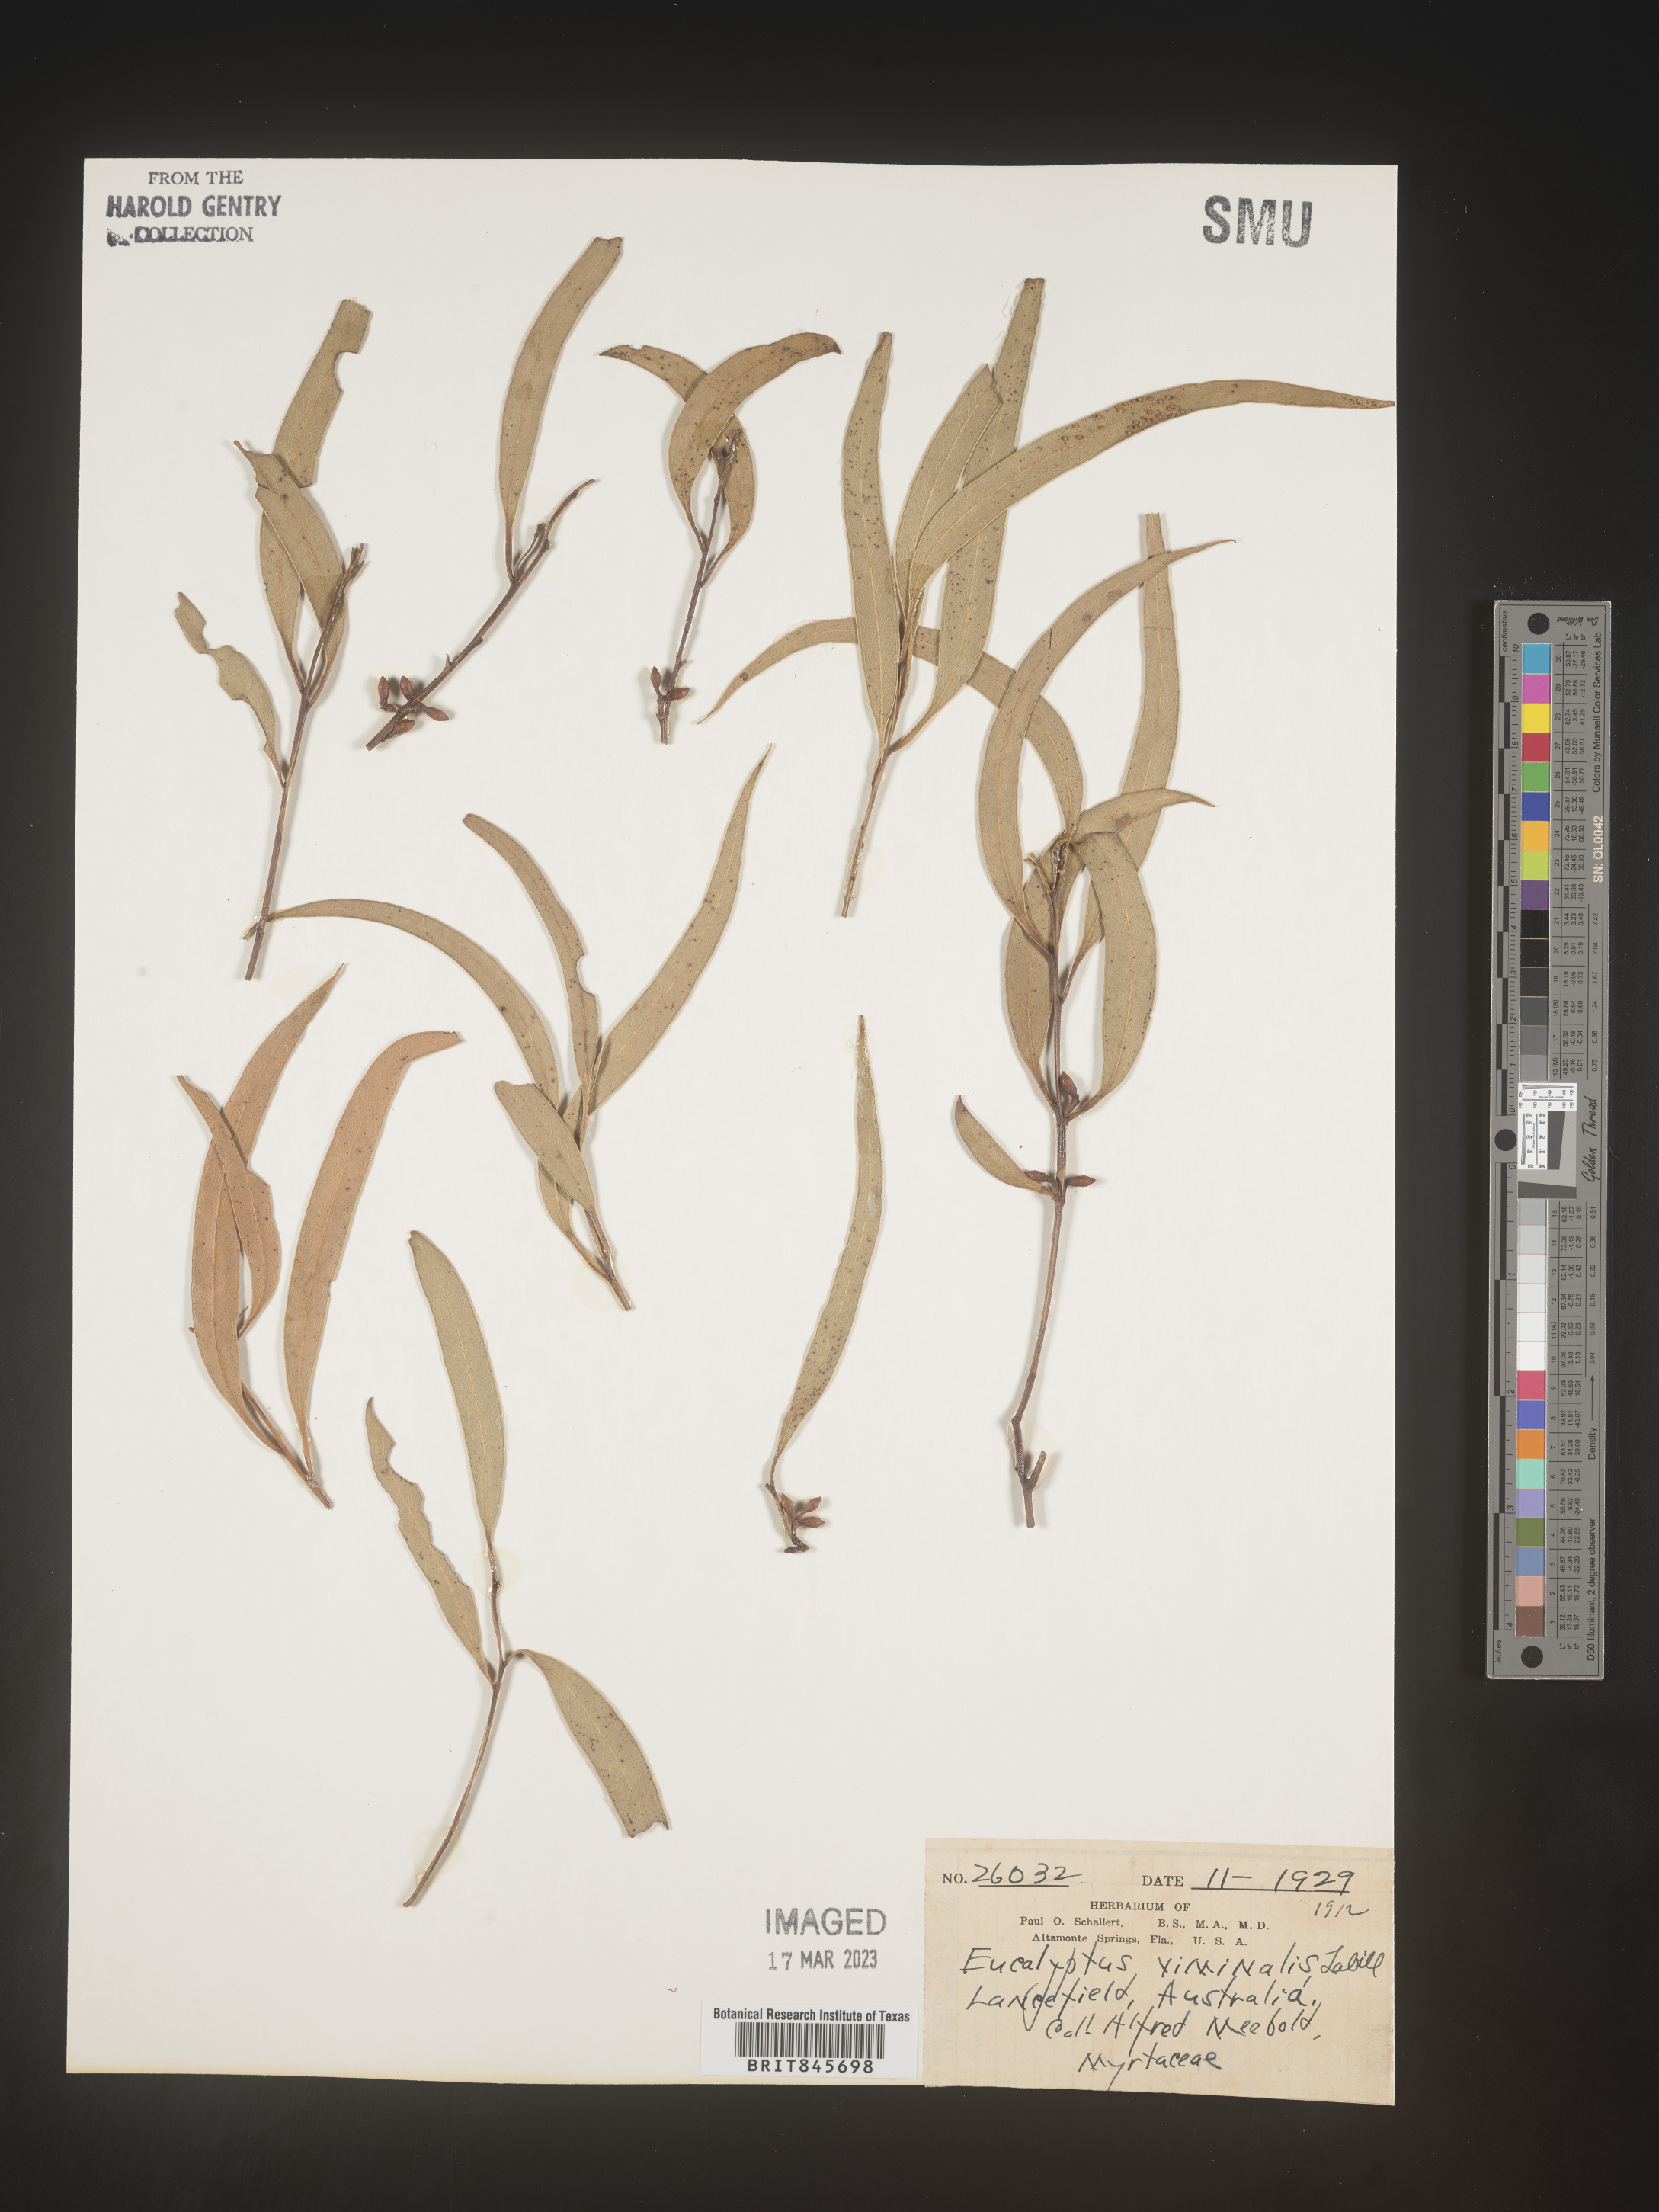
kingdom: Plantae
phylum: Tracheophyta
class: Magnoliopsida
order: Myrtales
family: Myrtaceae
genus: Eucalyptus
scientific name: Eucalyptus
